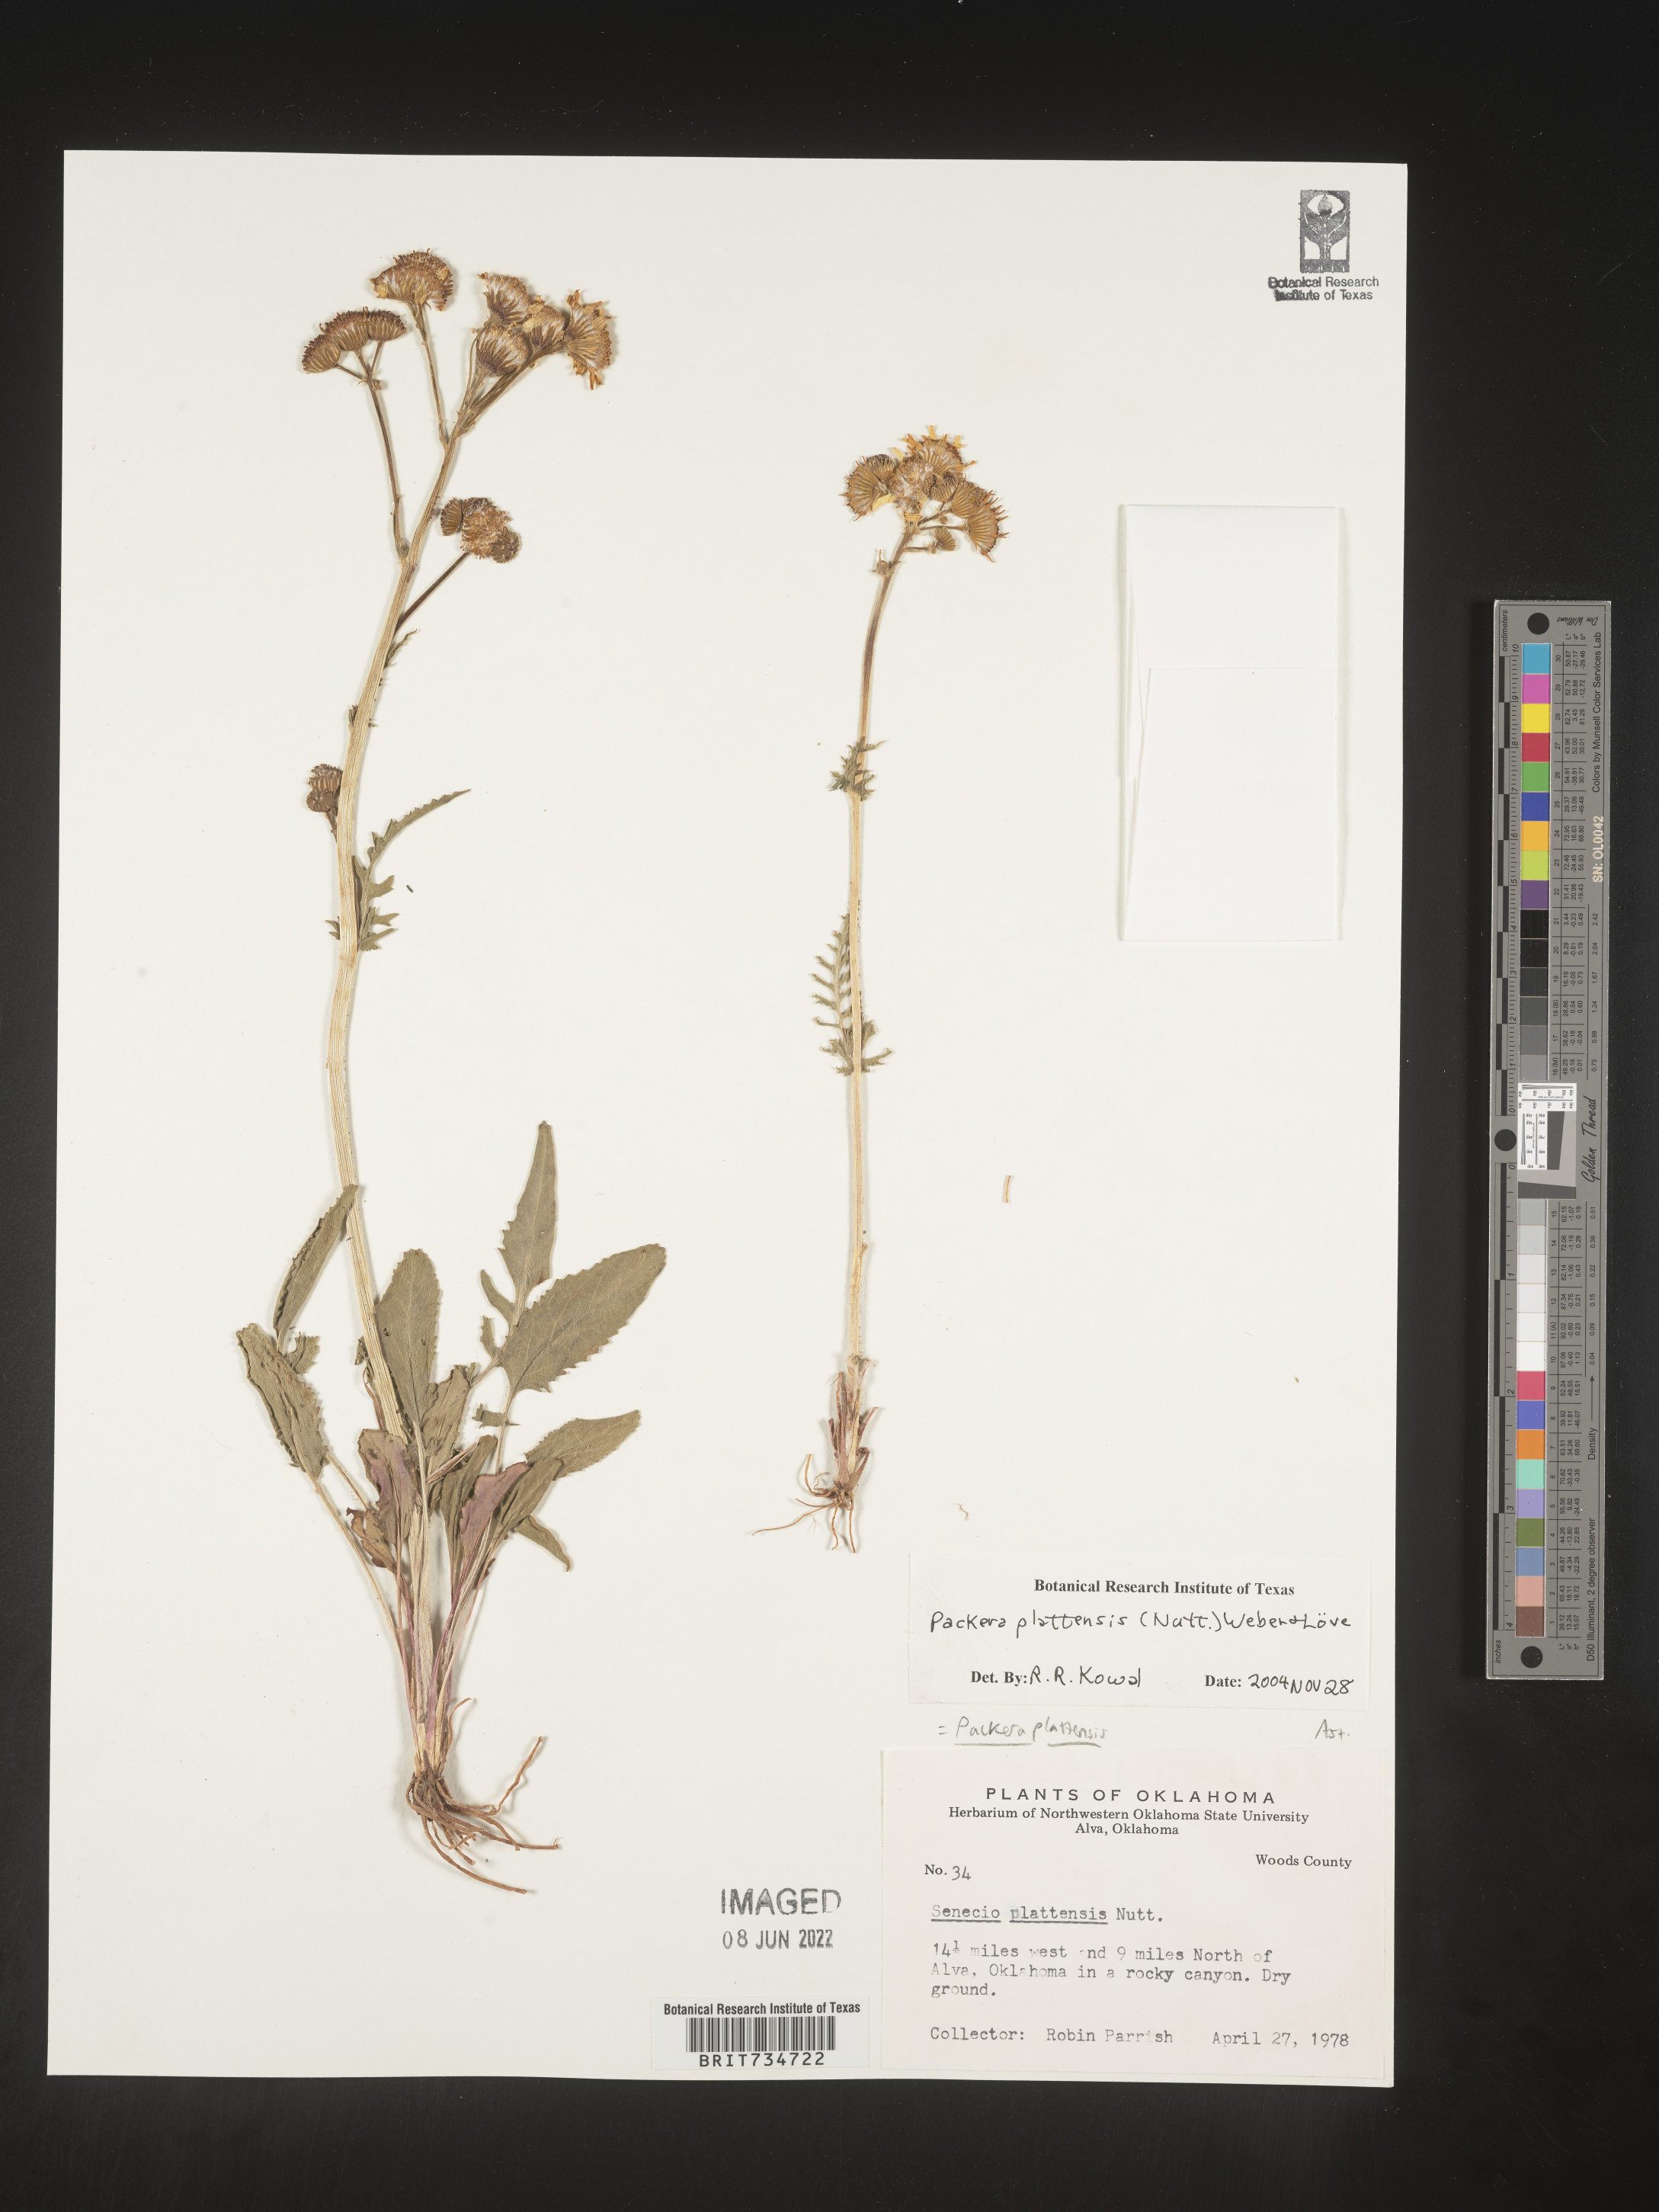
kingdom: Plantae
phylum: Tracheophyta
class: Magnoliopsida
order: Asterales
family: Asteraceae
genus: Packera
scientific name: Packera plattensis
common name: Prairie groundsel
